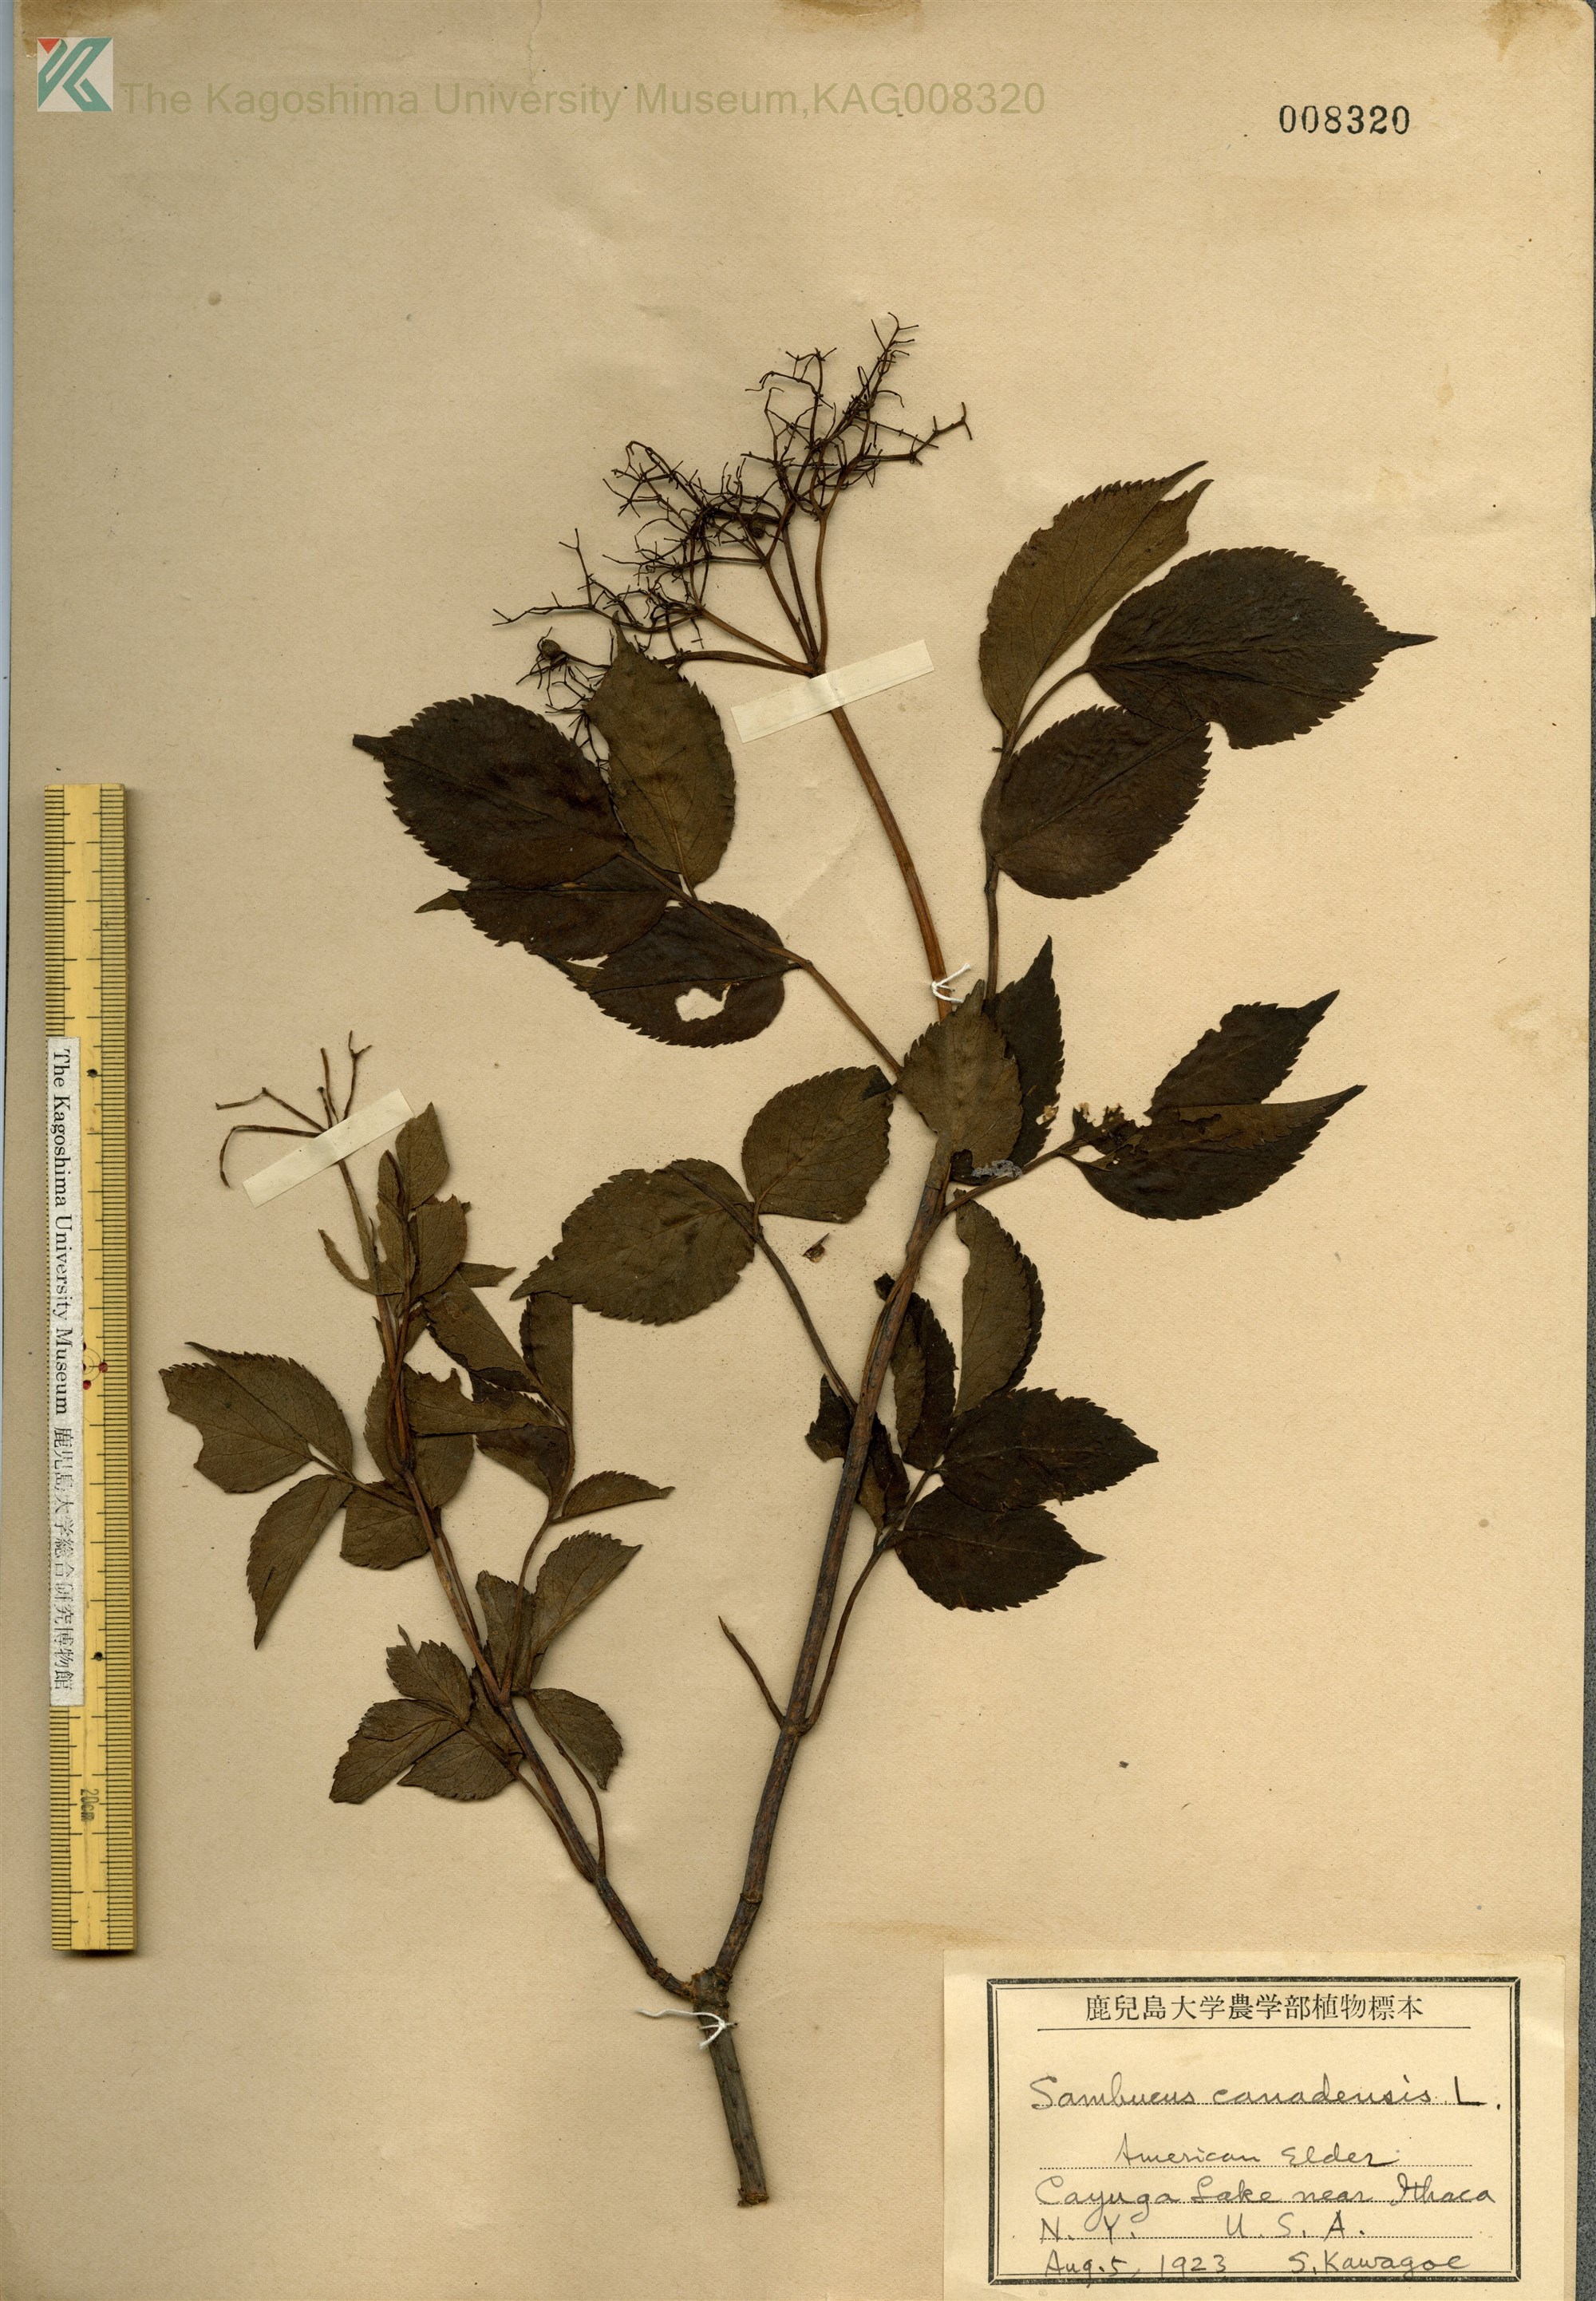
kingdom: Plantae
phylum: Tracheophyta
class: Magnoliopsida
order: Dipsacales
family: Viburnaceae
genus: Sambucus
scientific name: Sambucus nigra
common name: Elder
